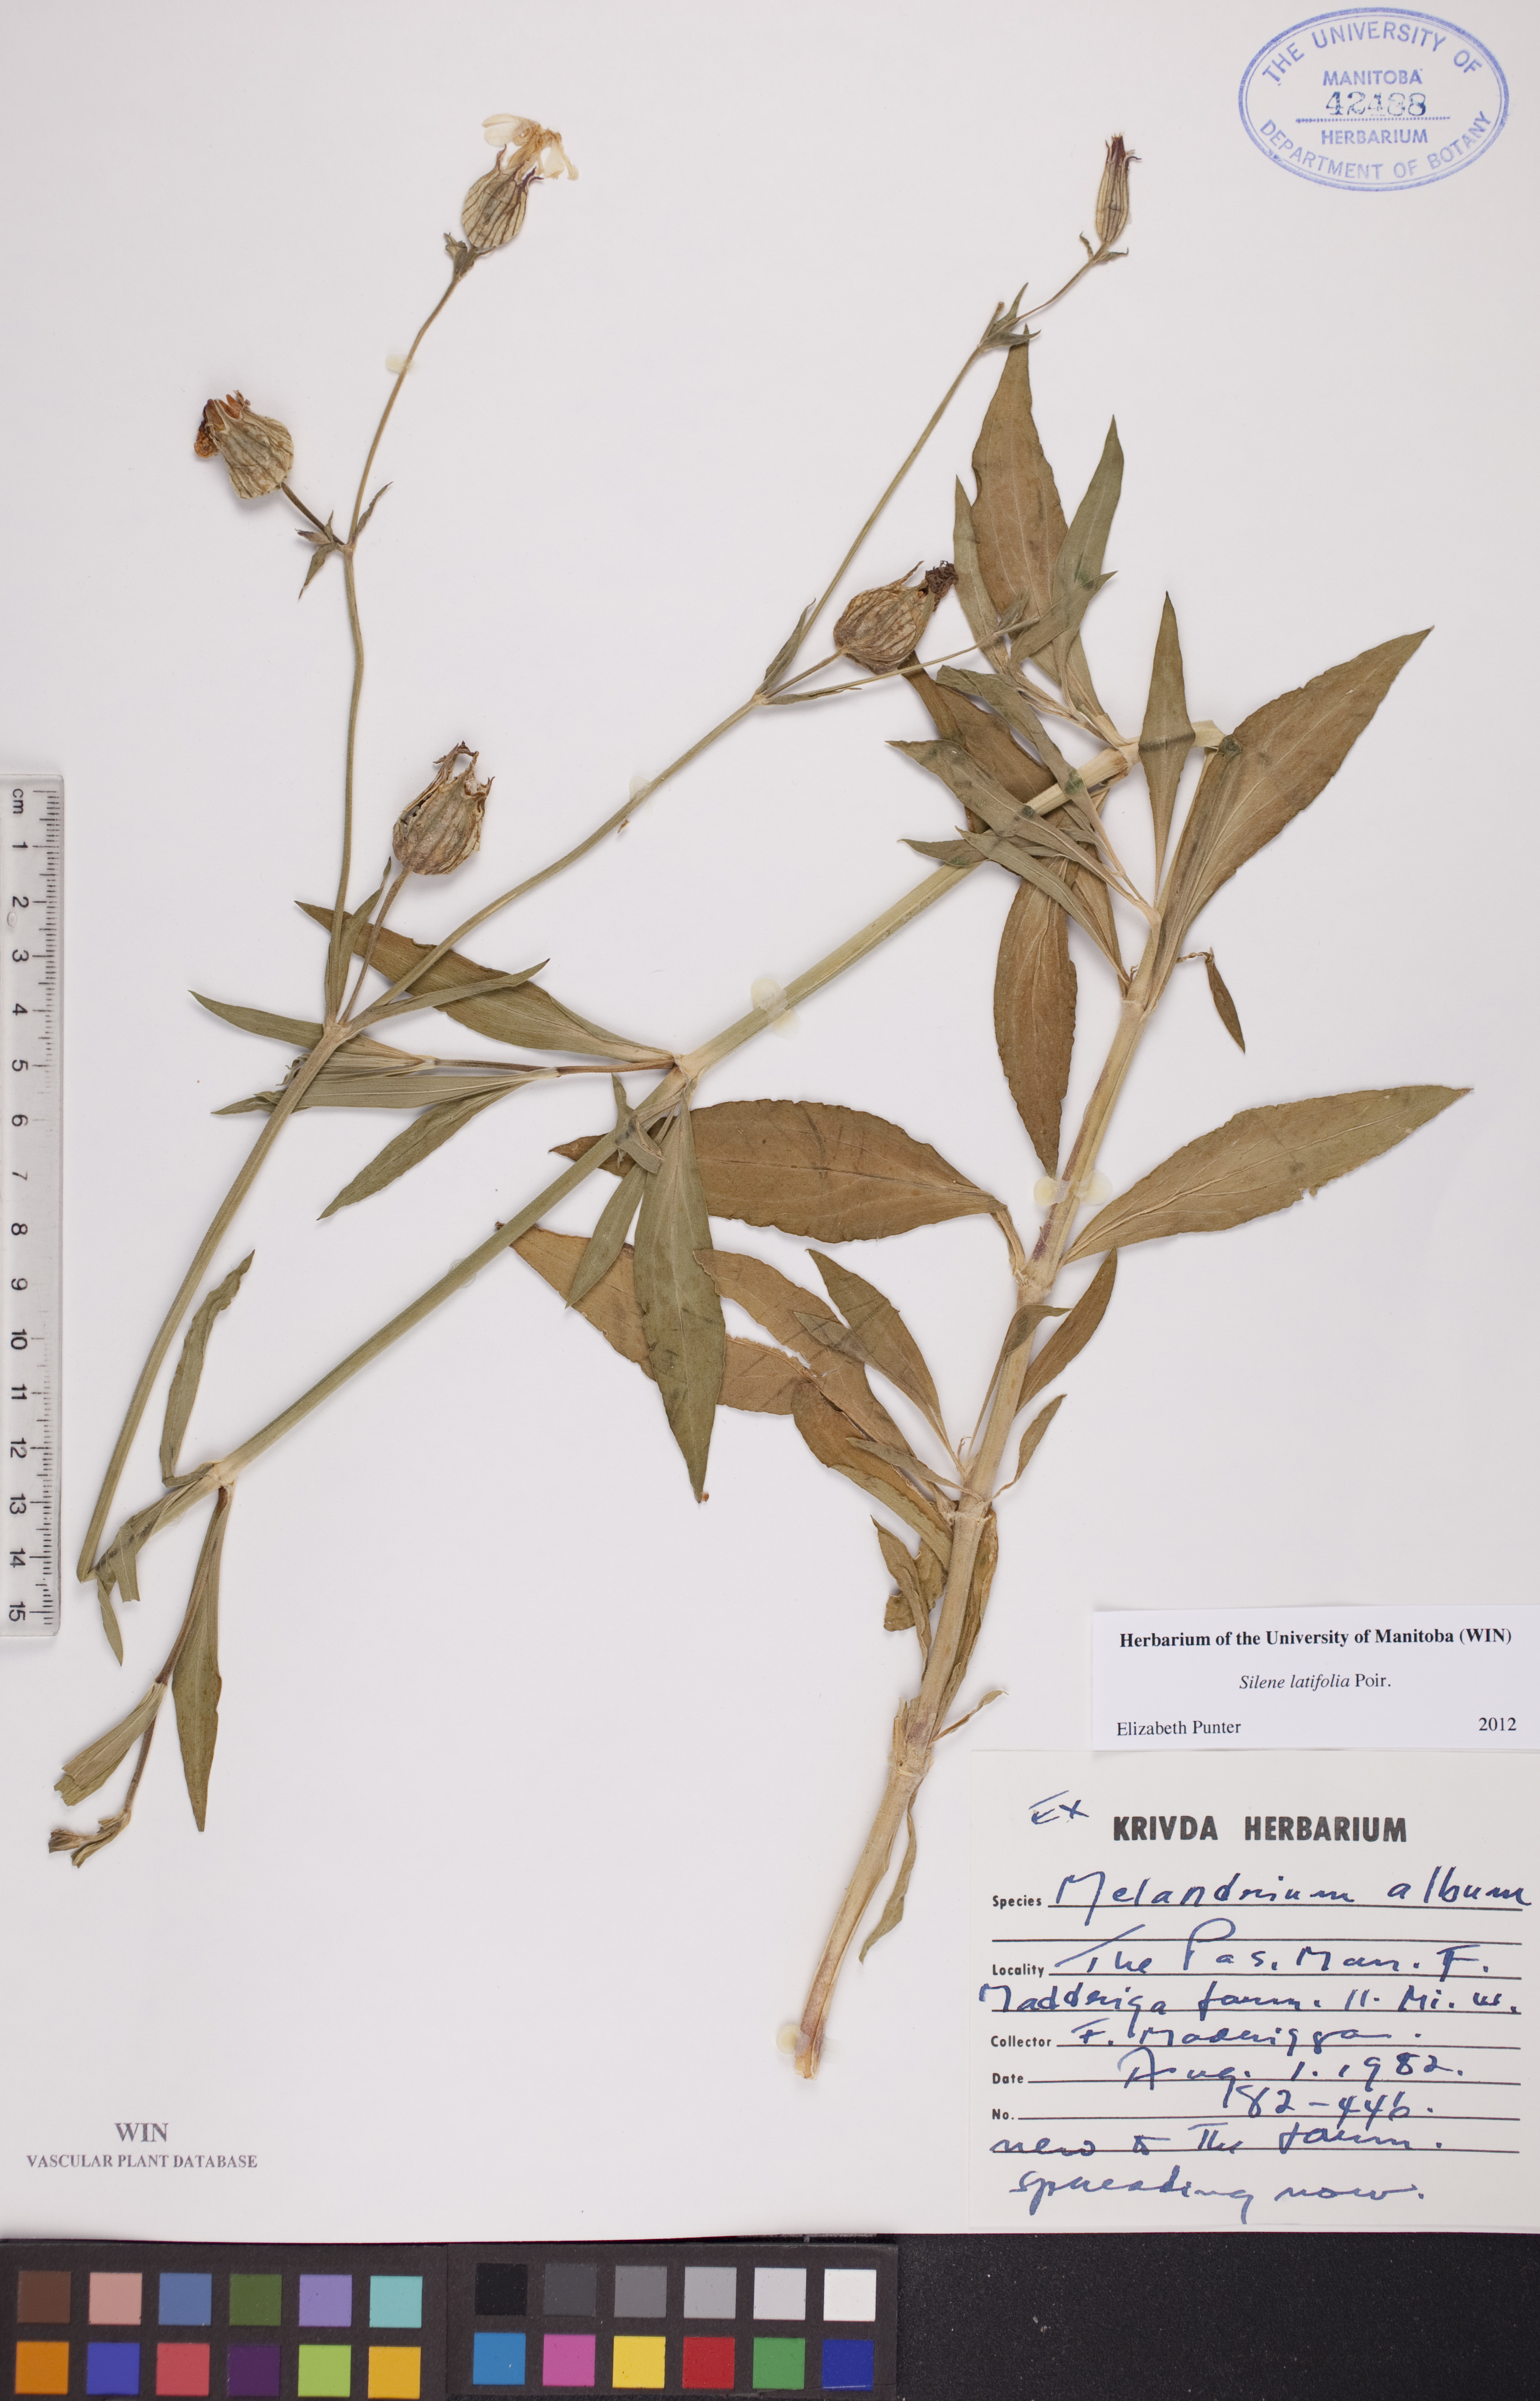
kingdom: Plantae
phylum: Tracheophyta
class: Magnoliopsida
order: Caryophyllales
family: Caryophyllaceae
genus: Silene
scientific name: Silene latifolia
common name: White campion
